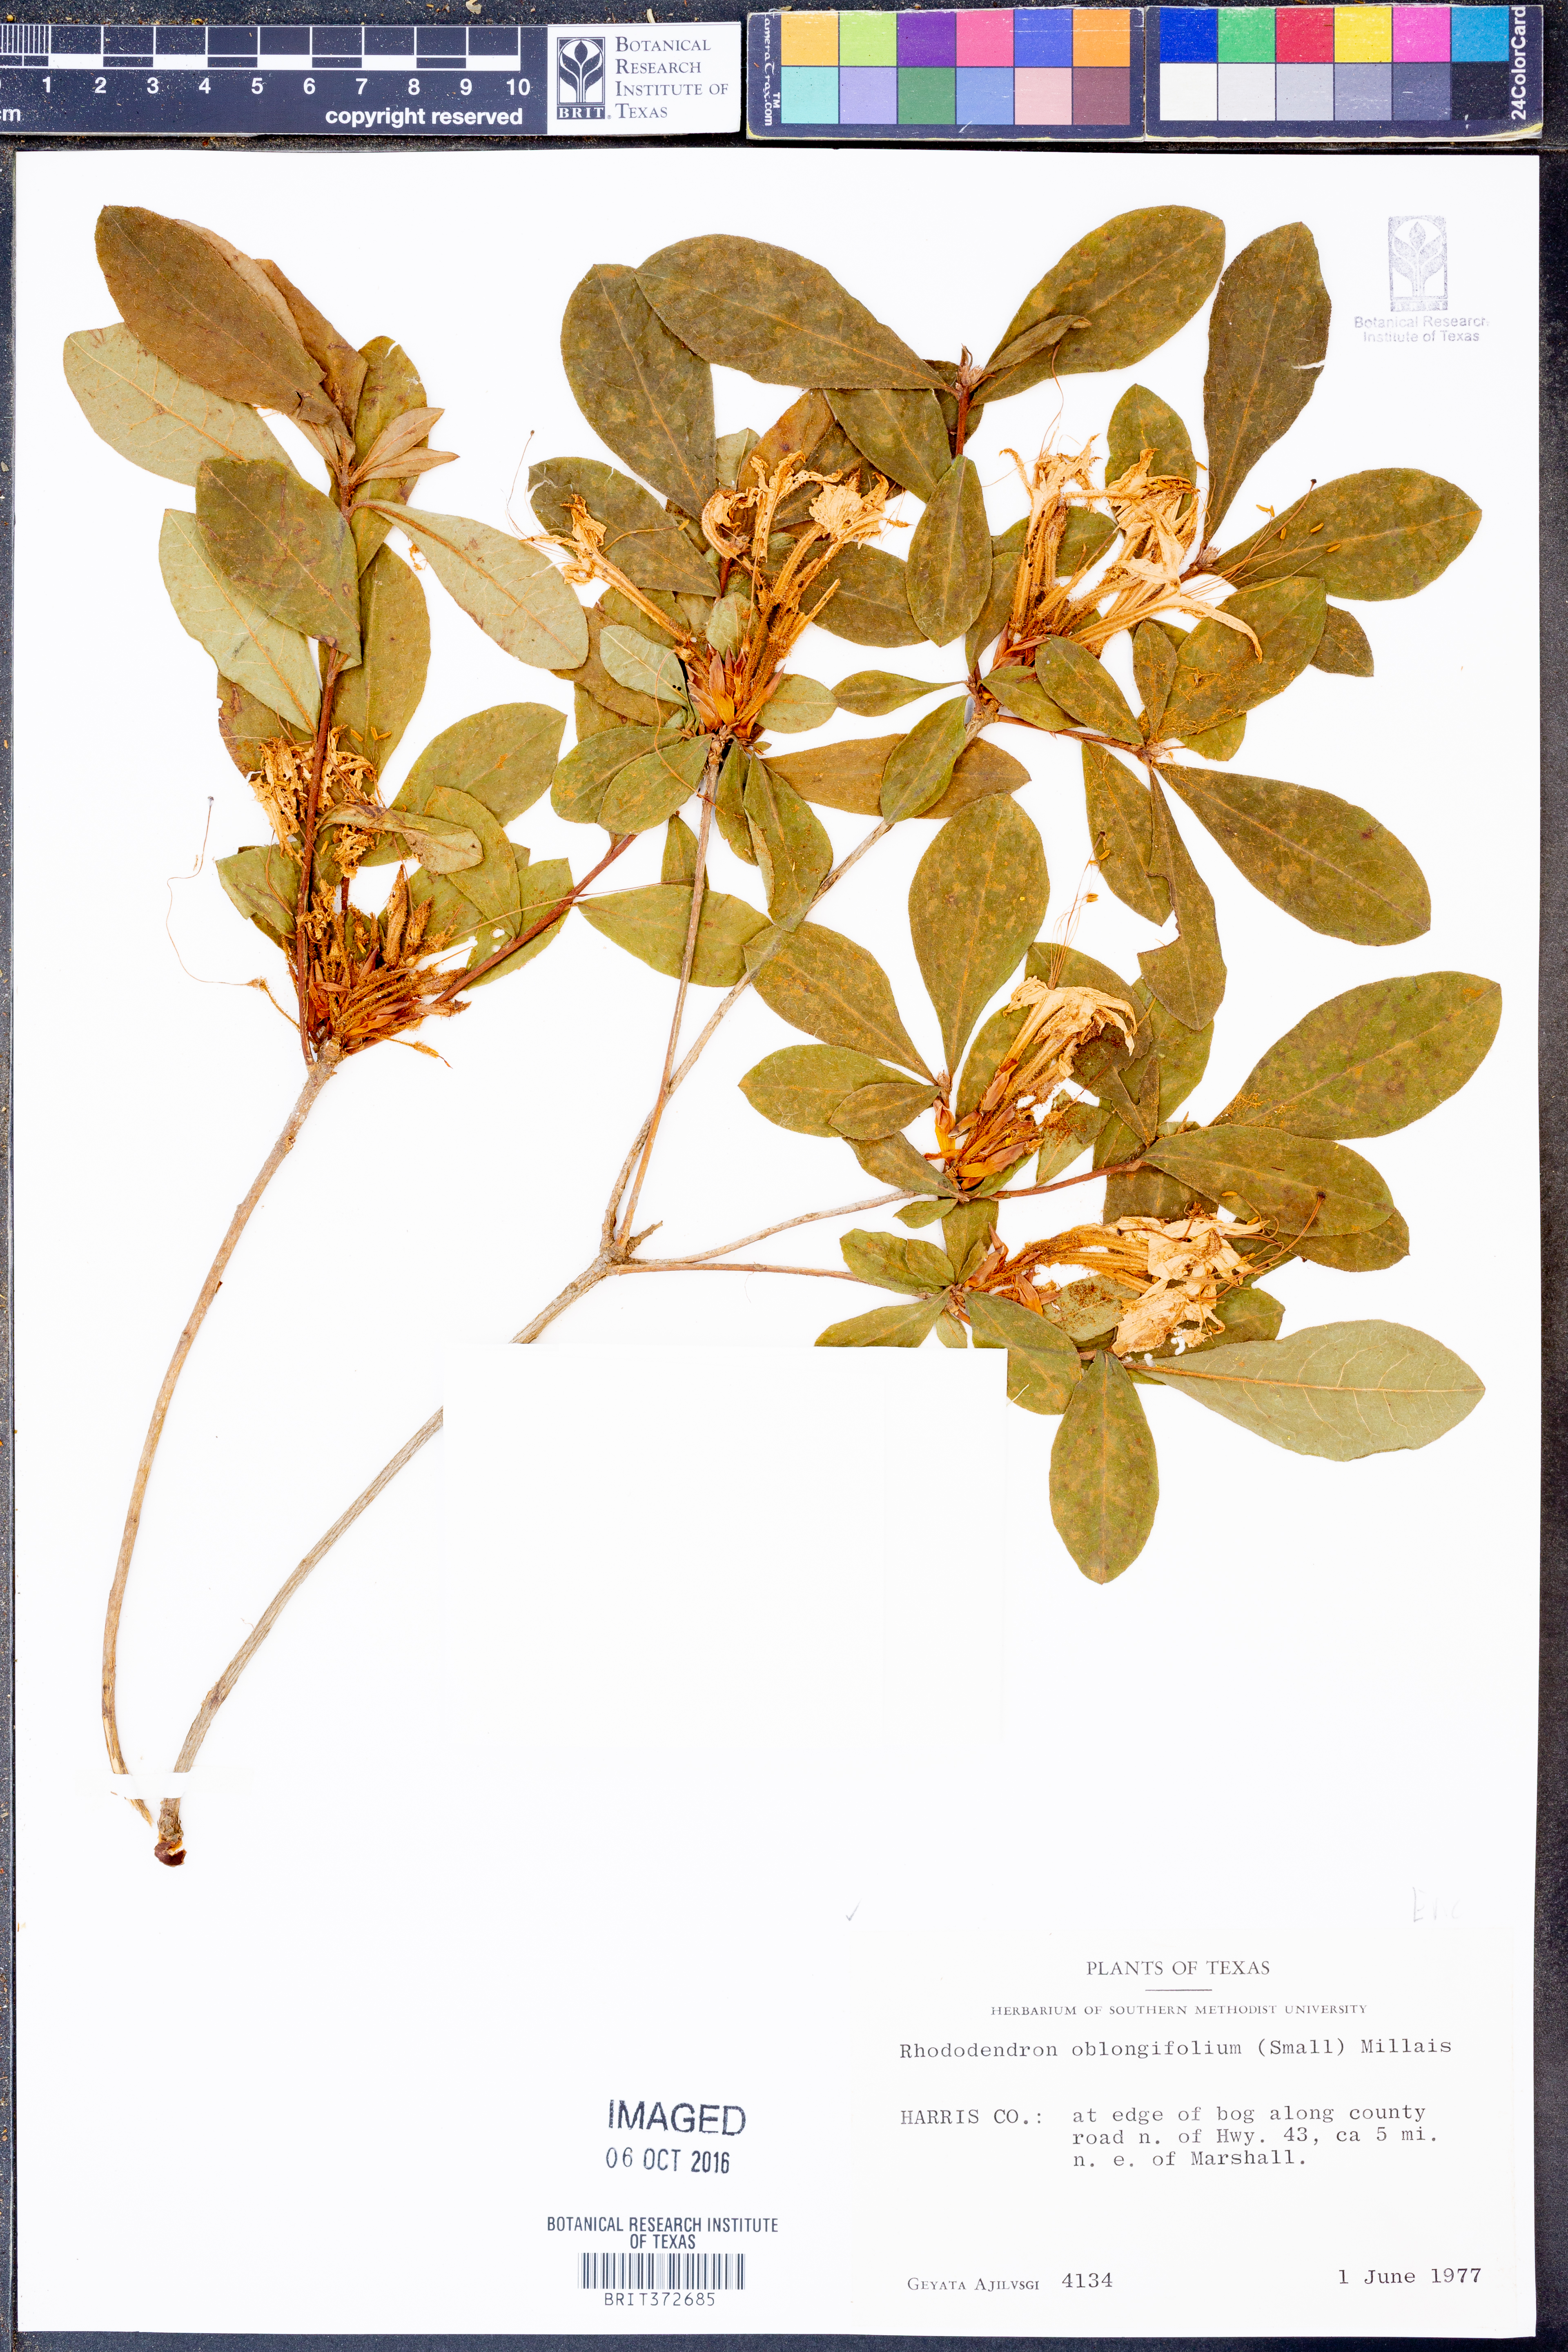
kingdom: Plantae
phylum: Tracheophyta
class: Magnoliopsida
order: Ericales
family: Ericaceae
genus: Rhododendron
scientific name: Rhododendron viscosum
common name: Clammy azalea
